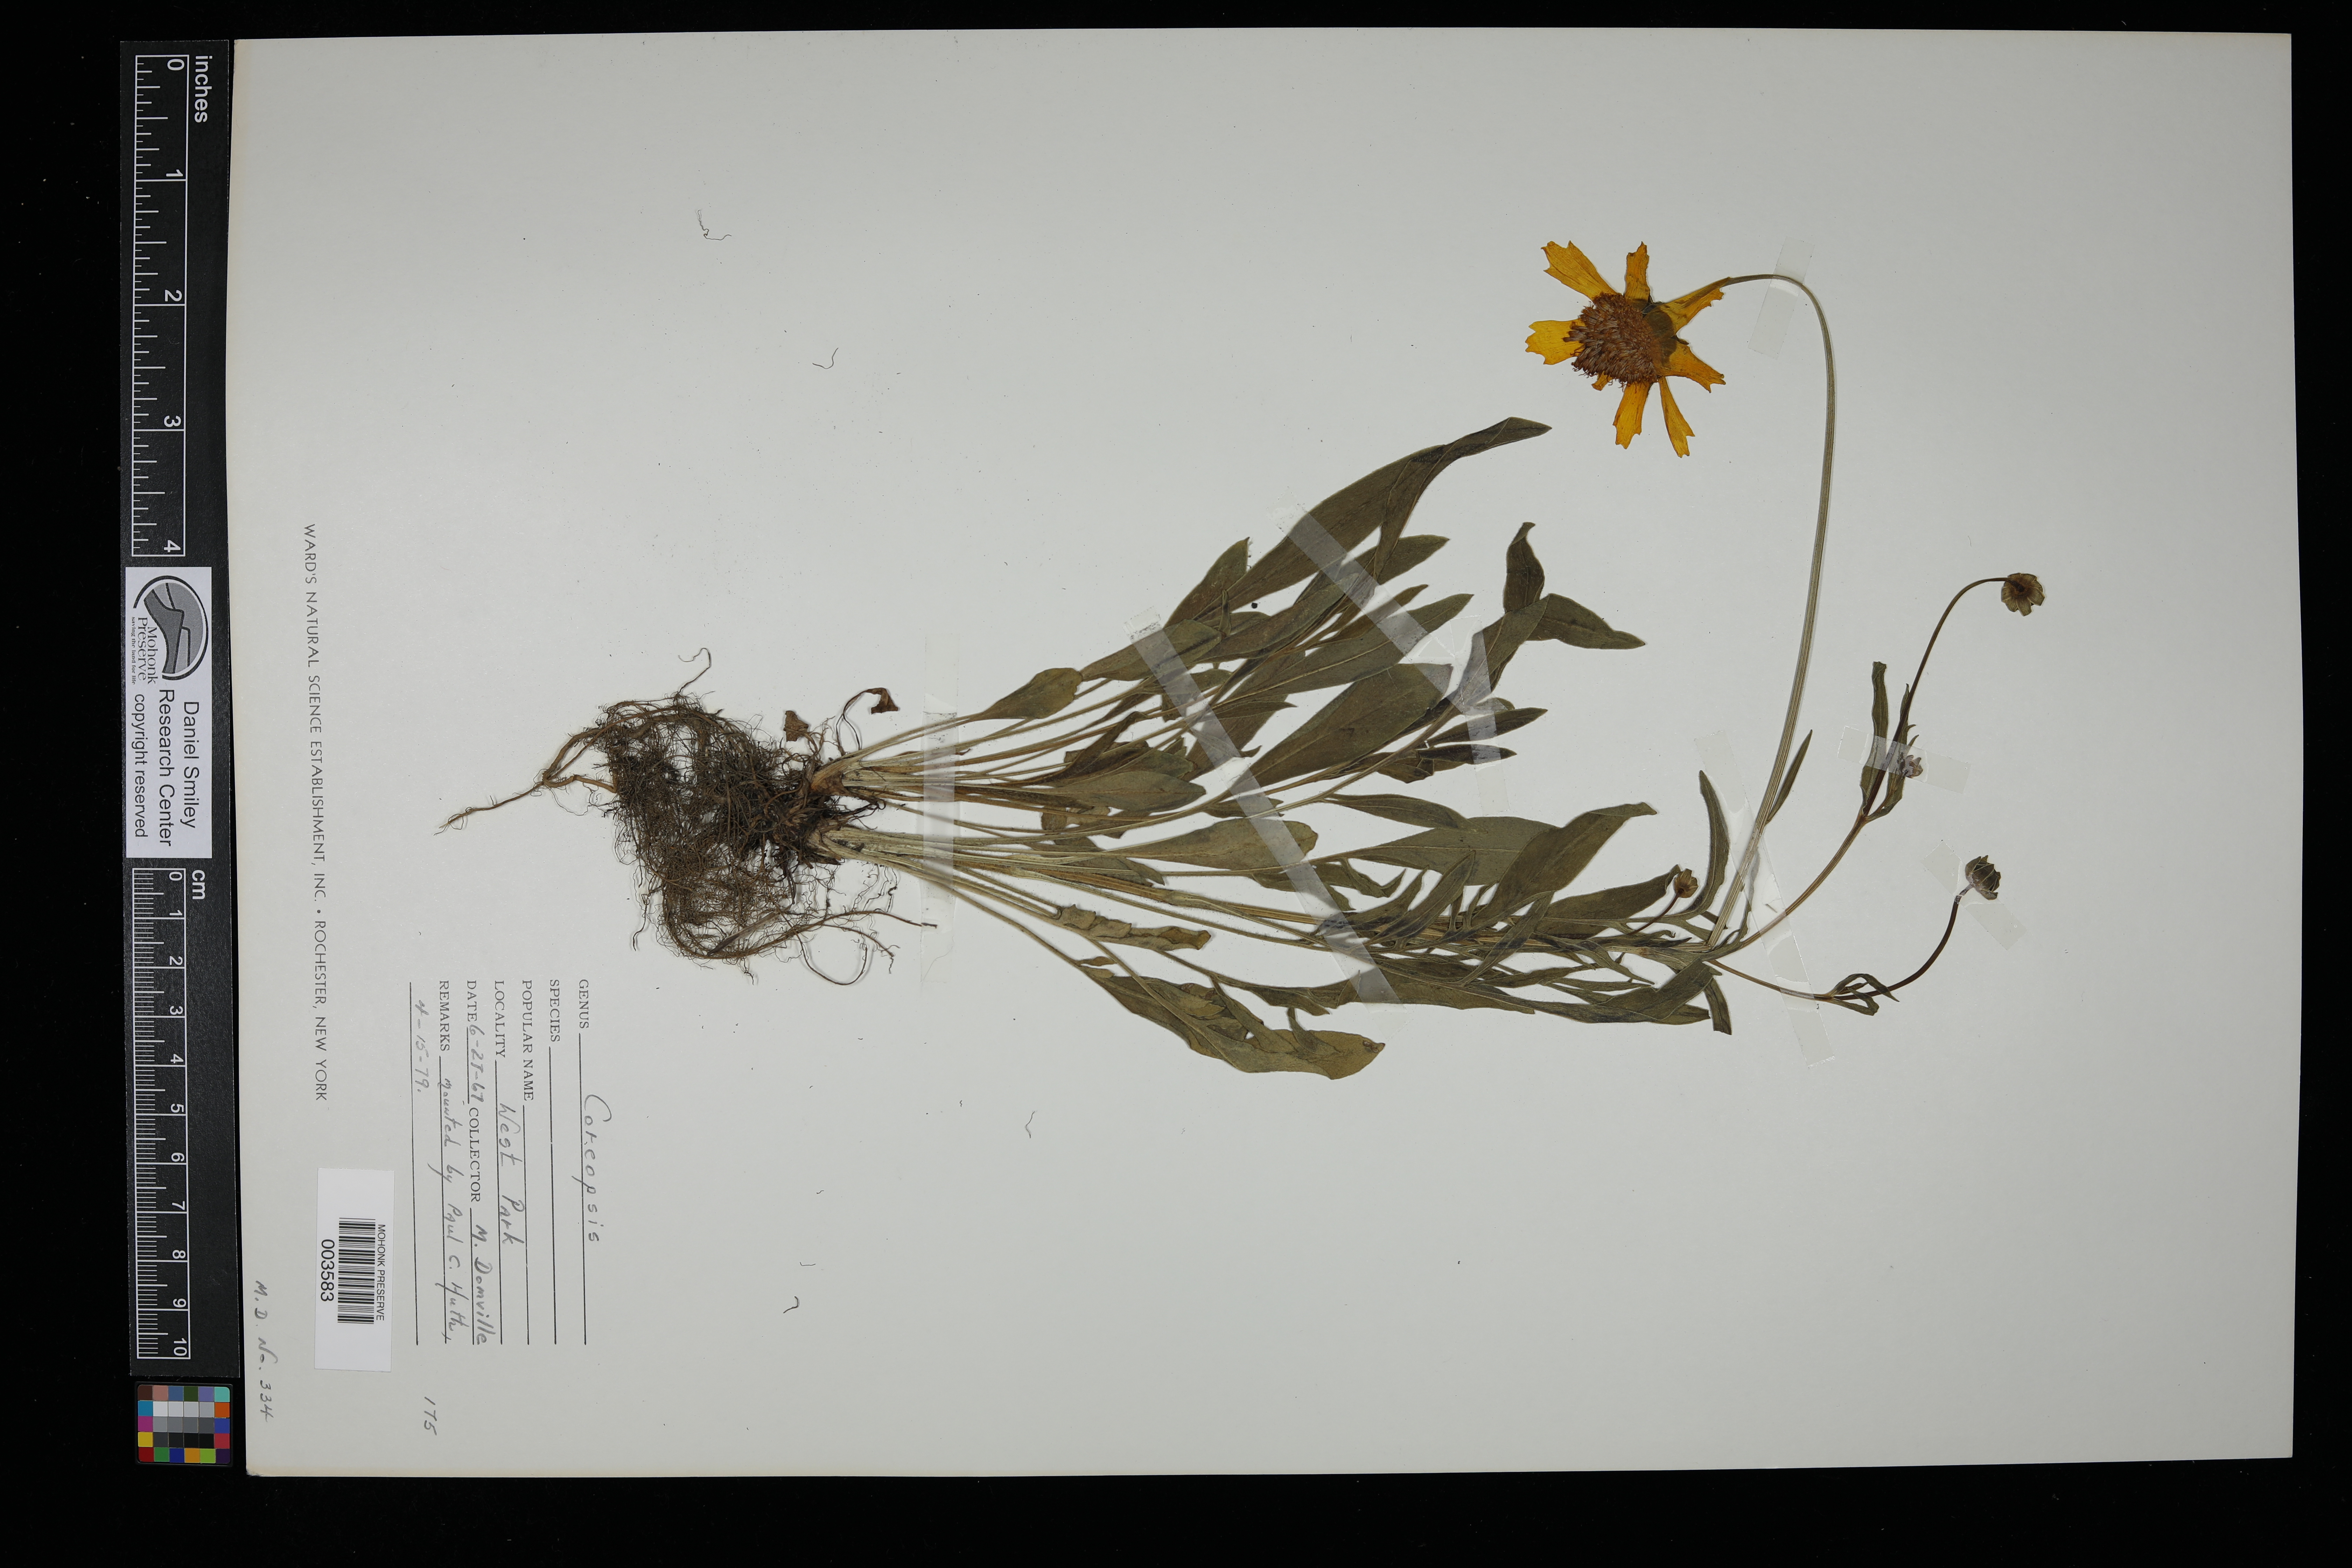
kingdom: Plantae
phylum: Tracheophyta
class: Magnoliopsida
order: Asterales
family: Asteraceae
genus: Coreopsis
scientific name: Coreopsis
